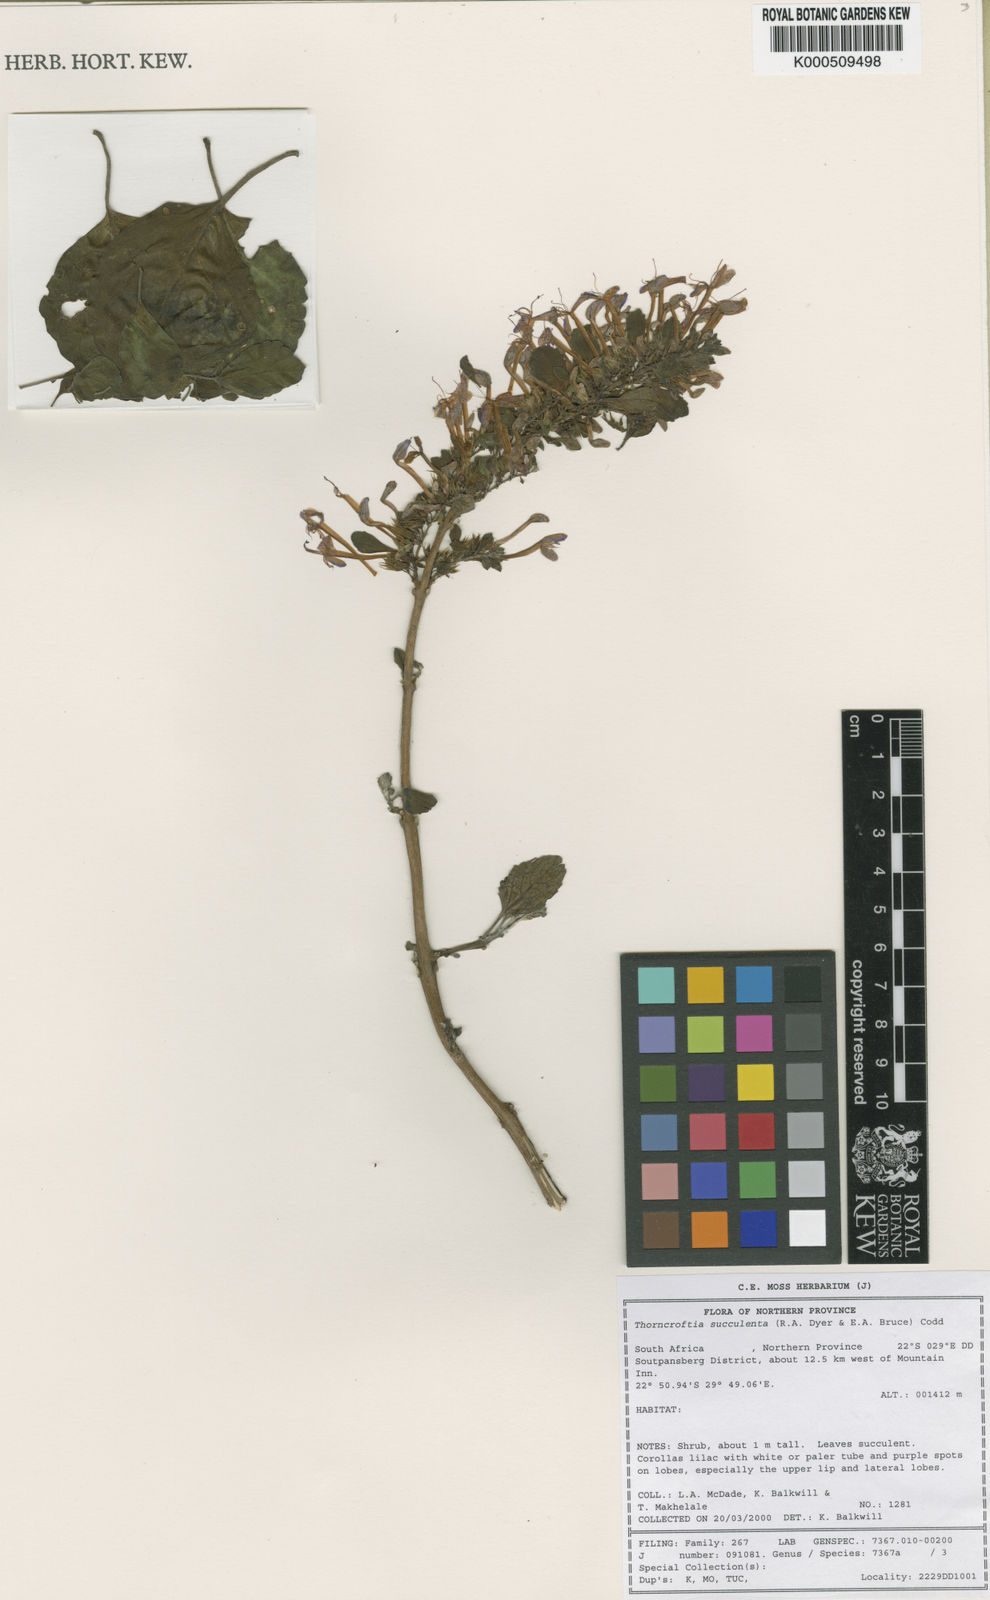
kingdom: Plantae
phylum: Tracheophyta
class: Magnoliopsida
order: Lamiales
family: Lamiaceae
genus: Thorncroftia
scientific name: Thorncroftia succulenta
